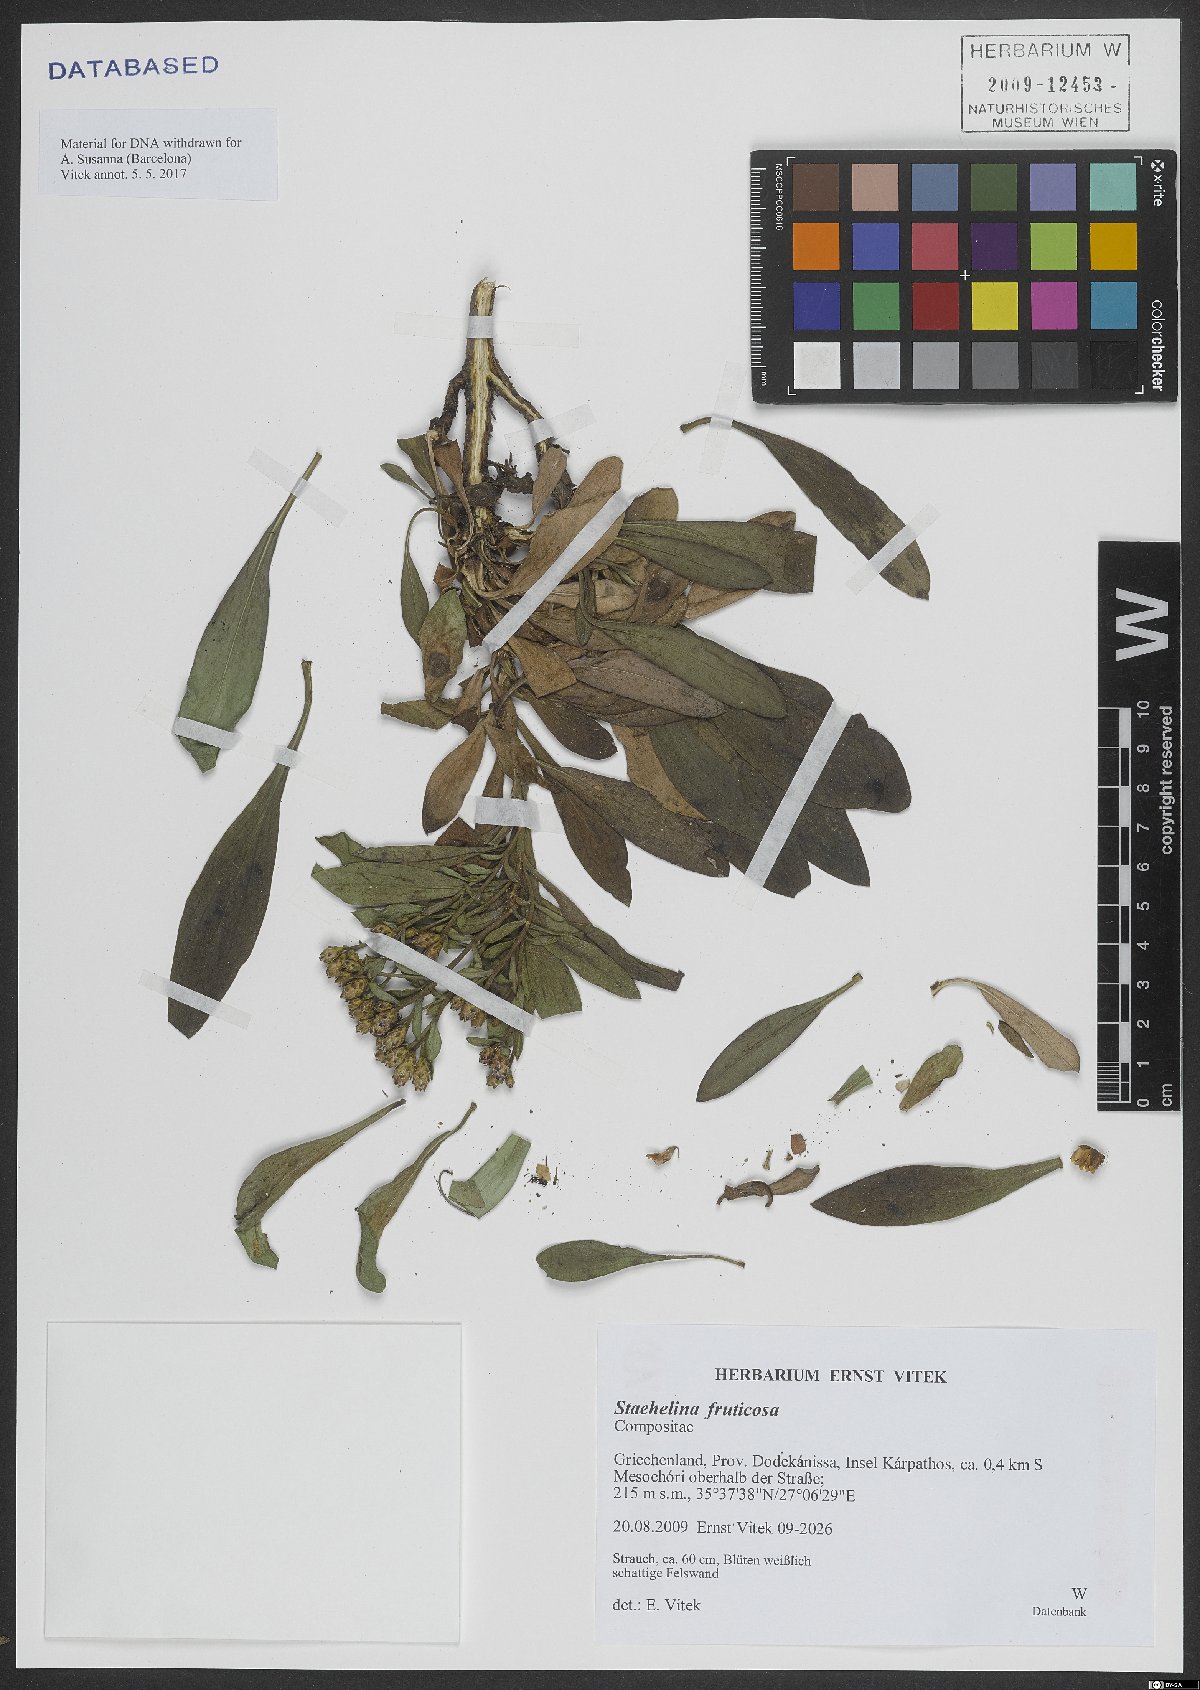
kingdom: Plantae
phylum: Tracheophyta
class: Magnoliopsida
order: Asterales
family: Asteraceae
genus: Hirtellina
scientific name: Hirtellina fruticosa
